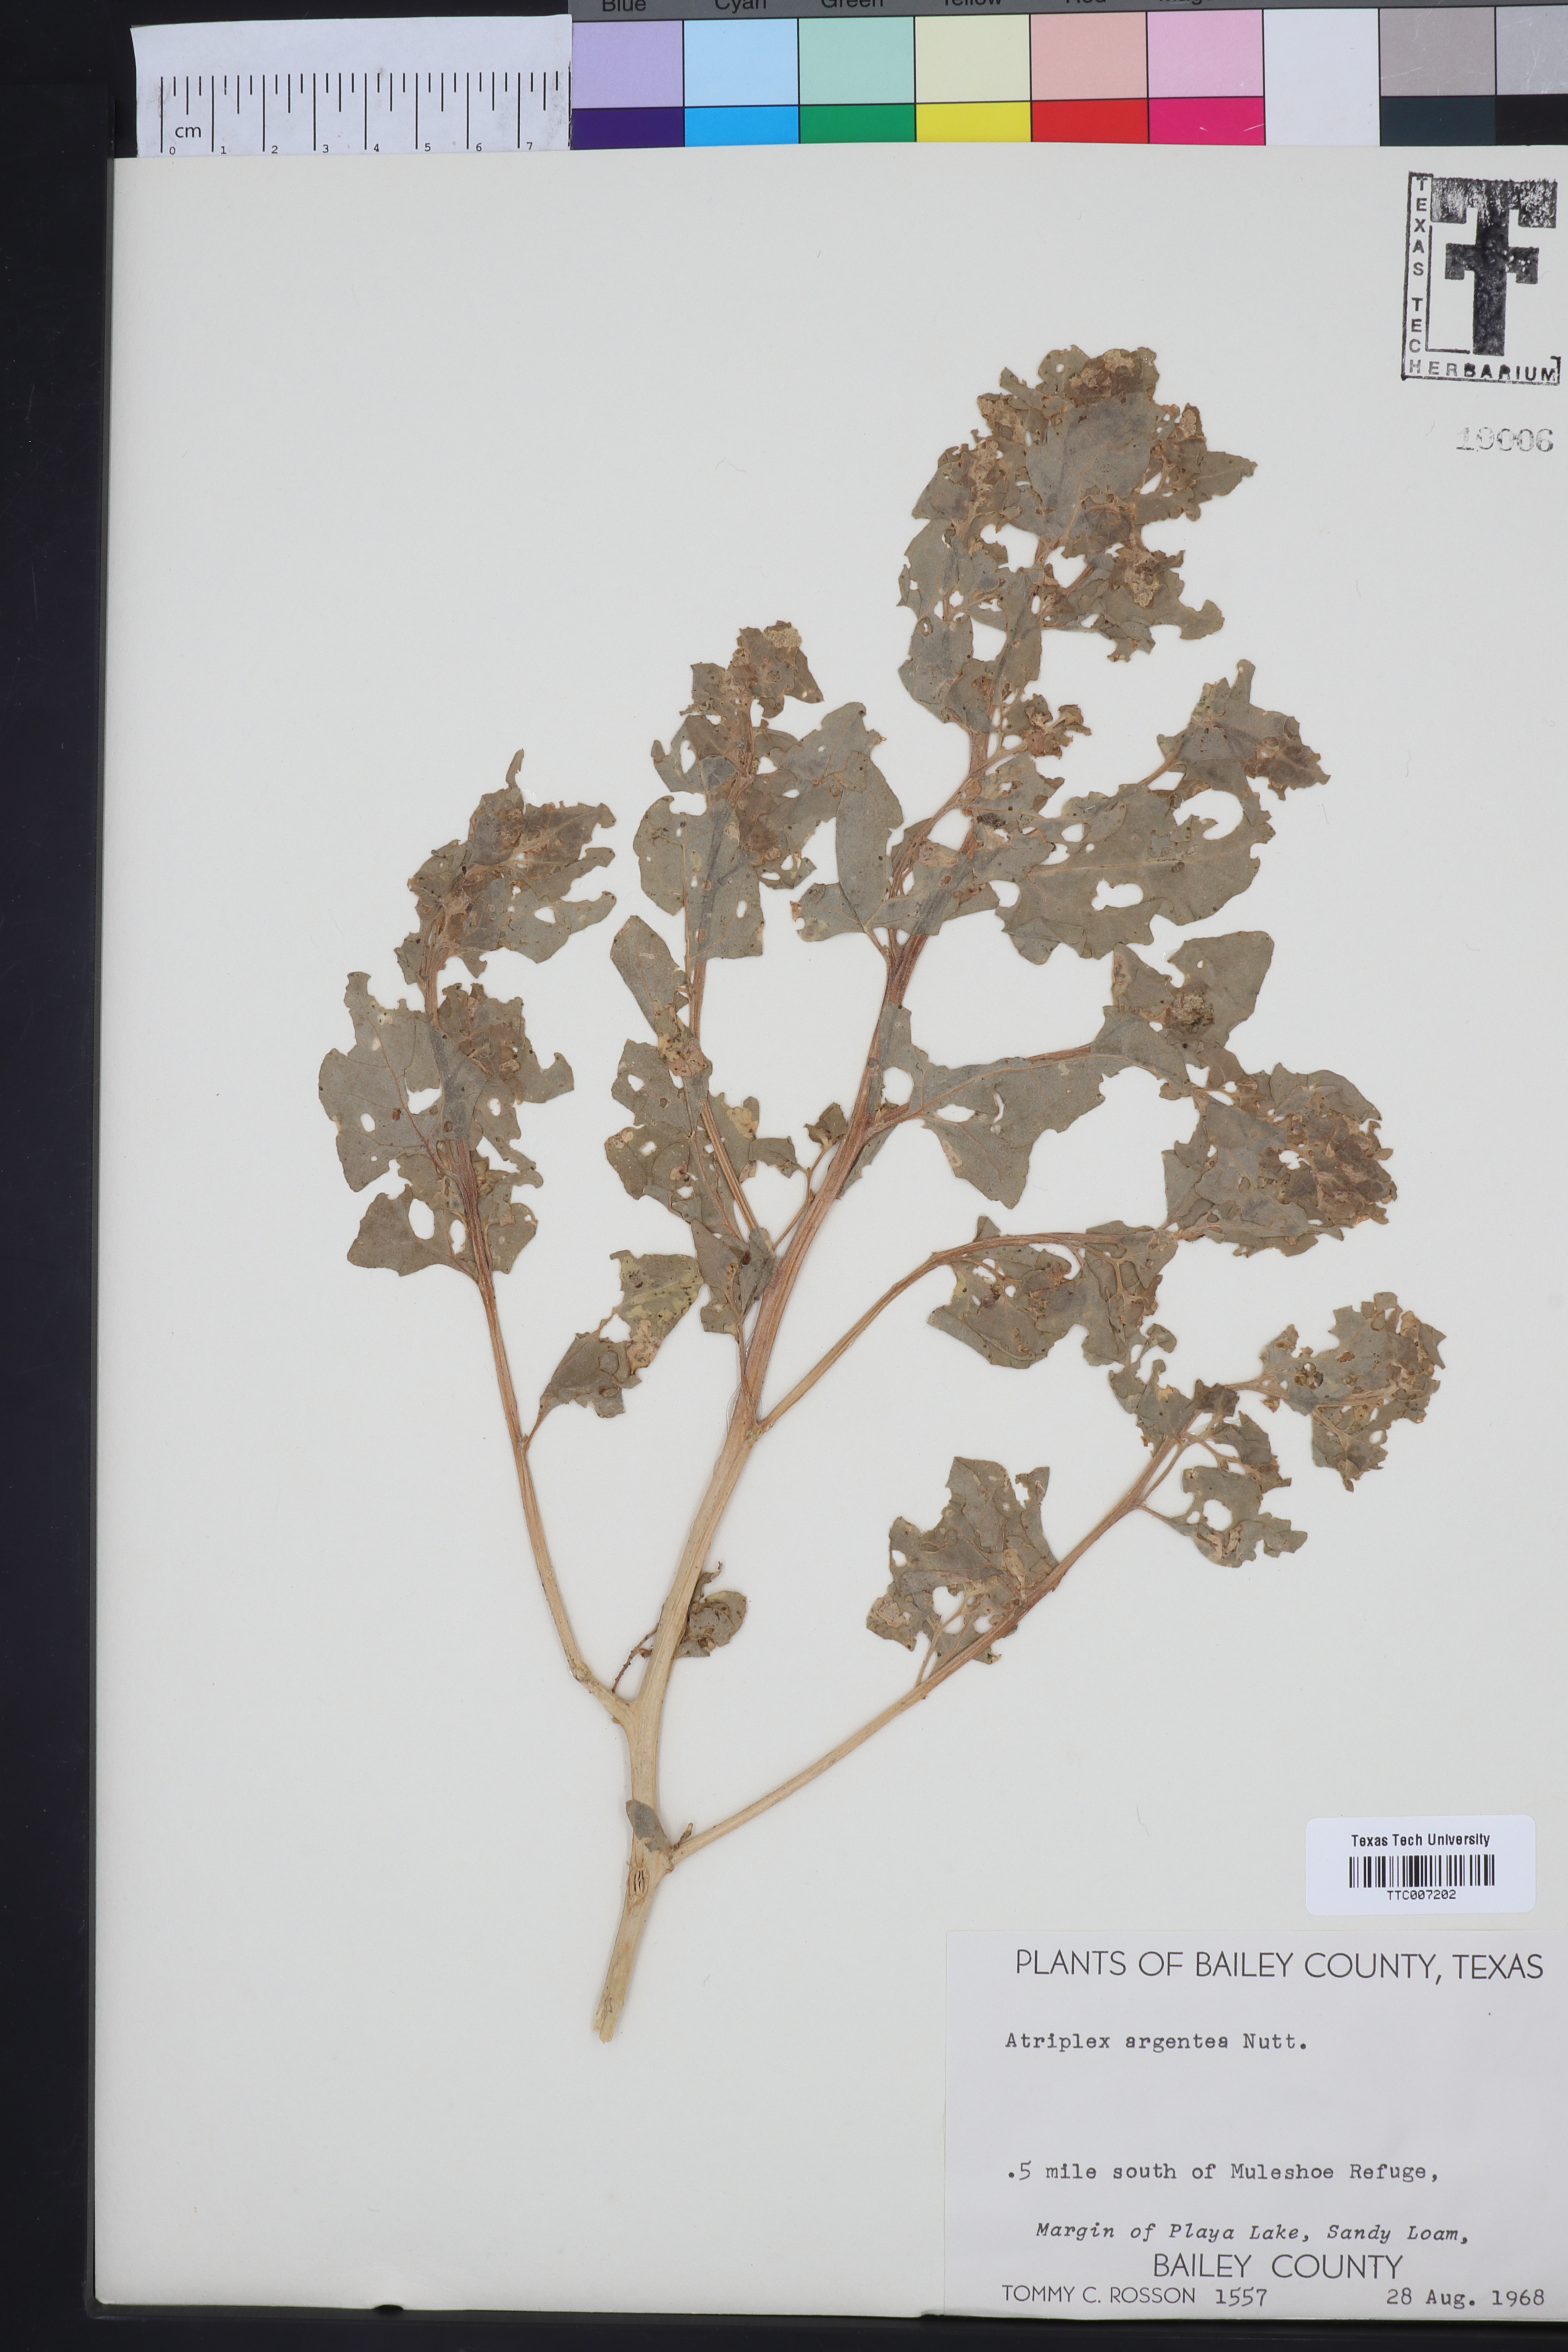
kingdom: Plantae
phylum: Tracheophyta
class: Magnoliopsida
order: Caryophyllales
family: Amaranthaceae
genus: Atriplex
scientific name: Atriplex argentea
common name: Silverscale
